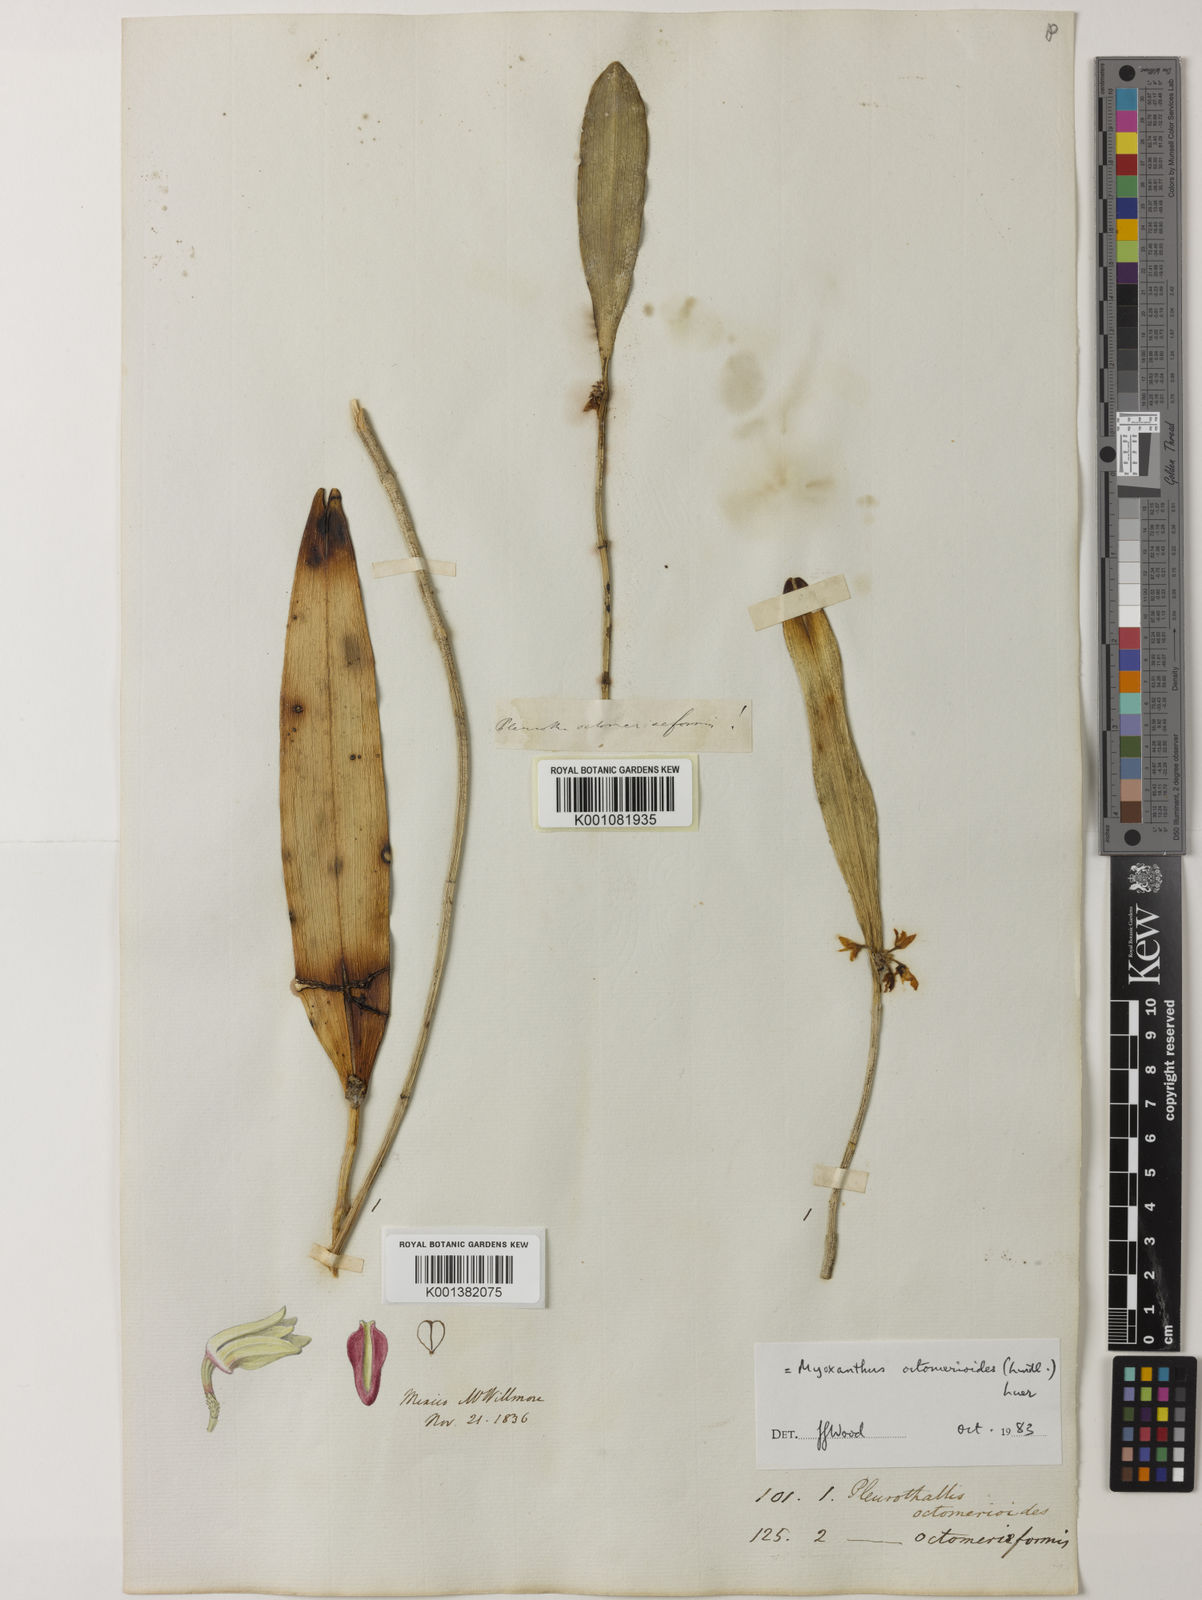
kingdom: Plantae
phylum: Tracheophyta
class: Liliopsida
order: Asparagales
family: Orchidaceae
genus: Myoxanthus
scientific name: Myoxanthus octomerioides
